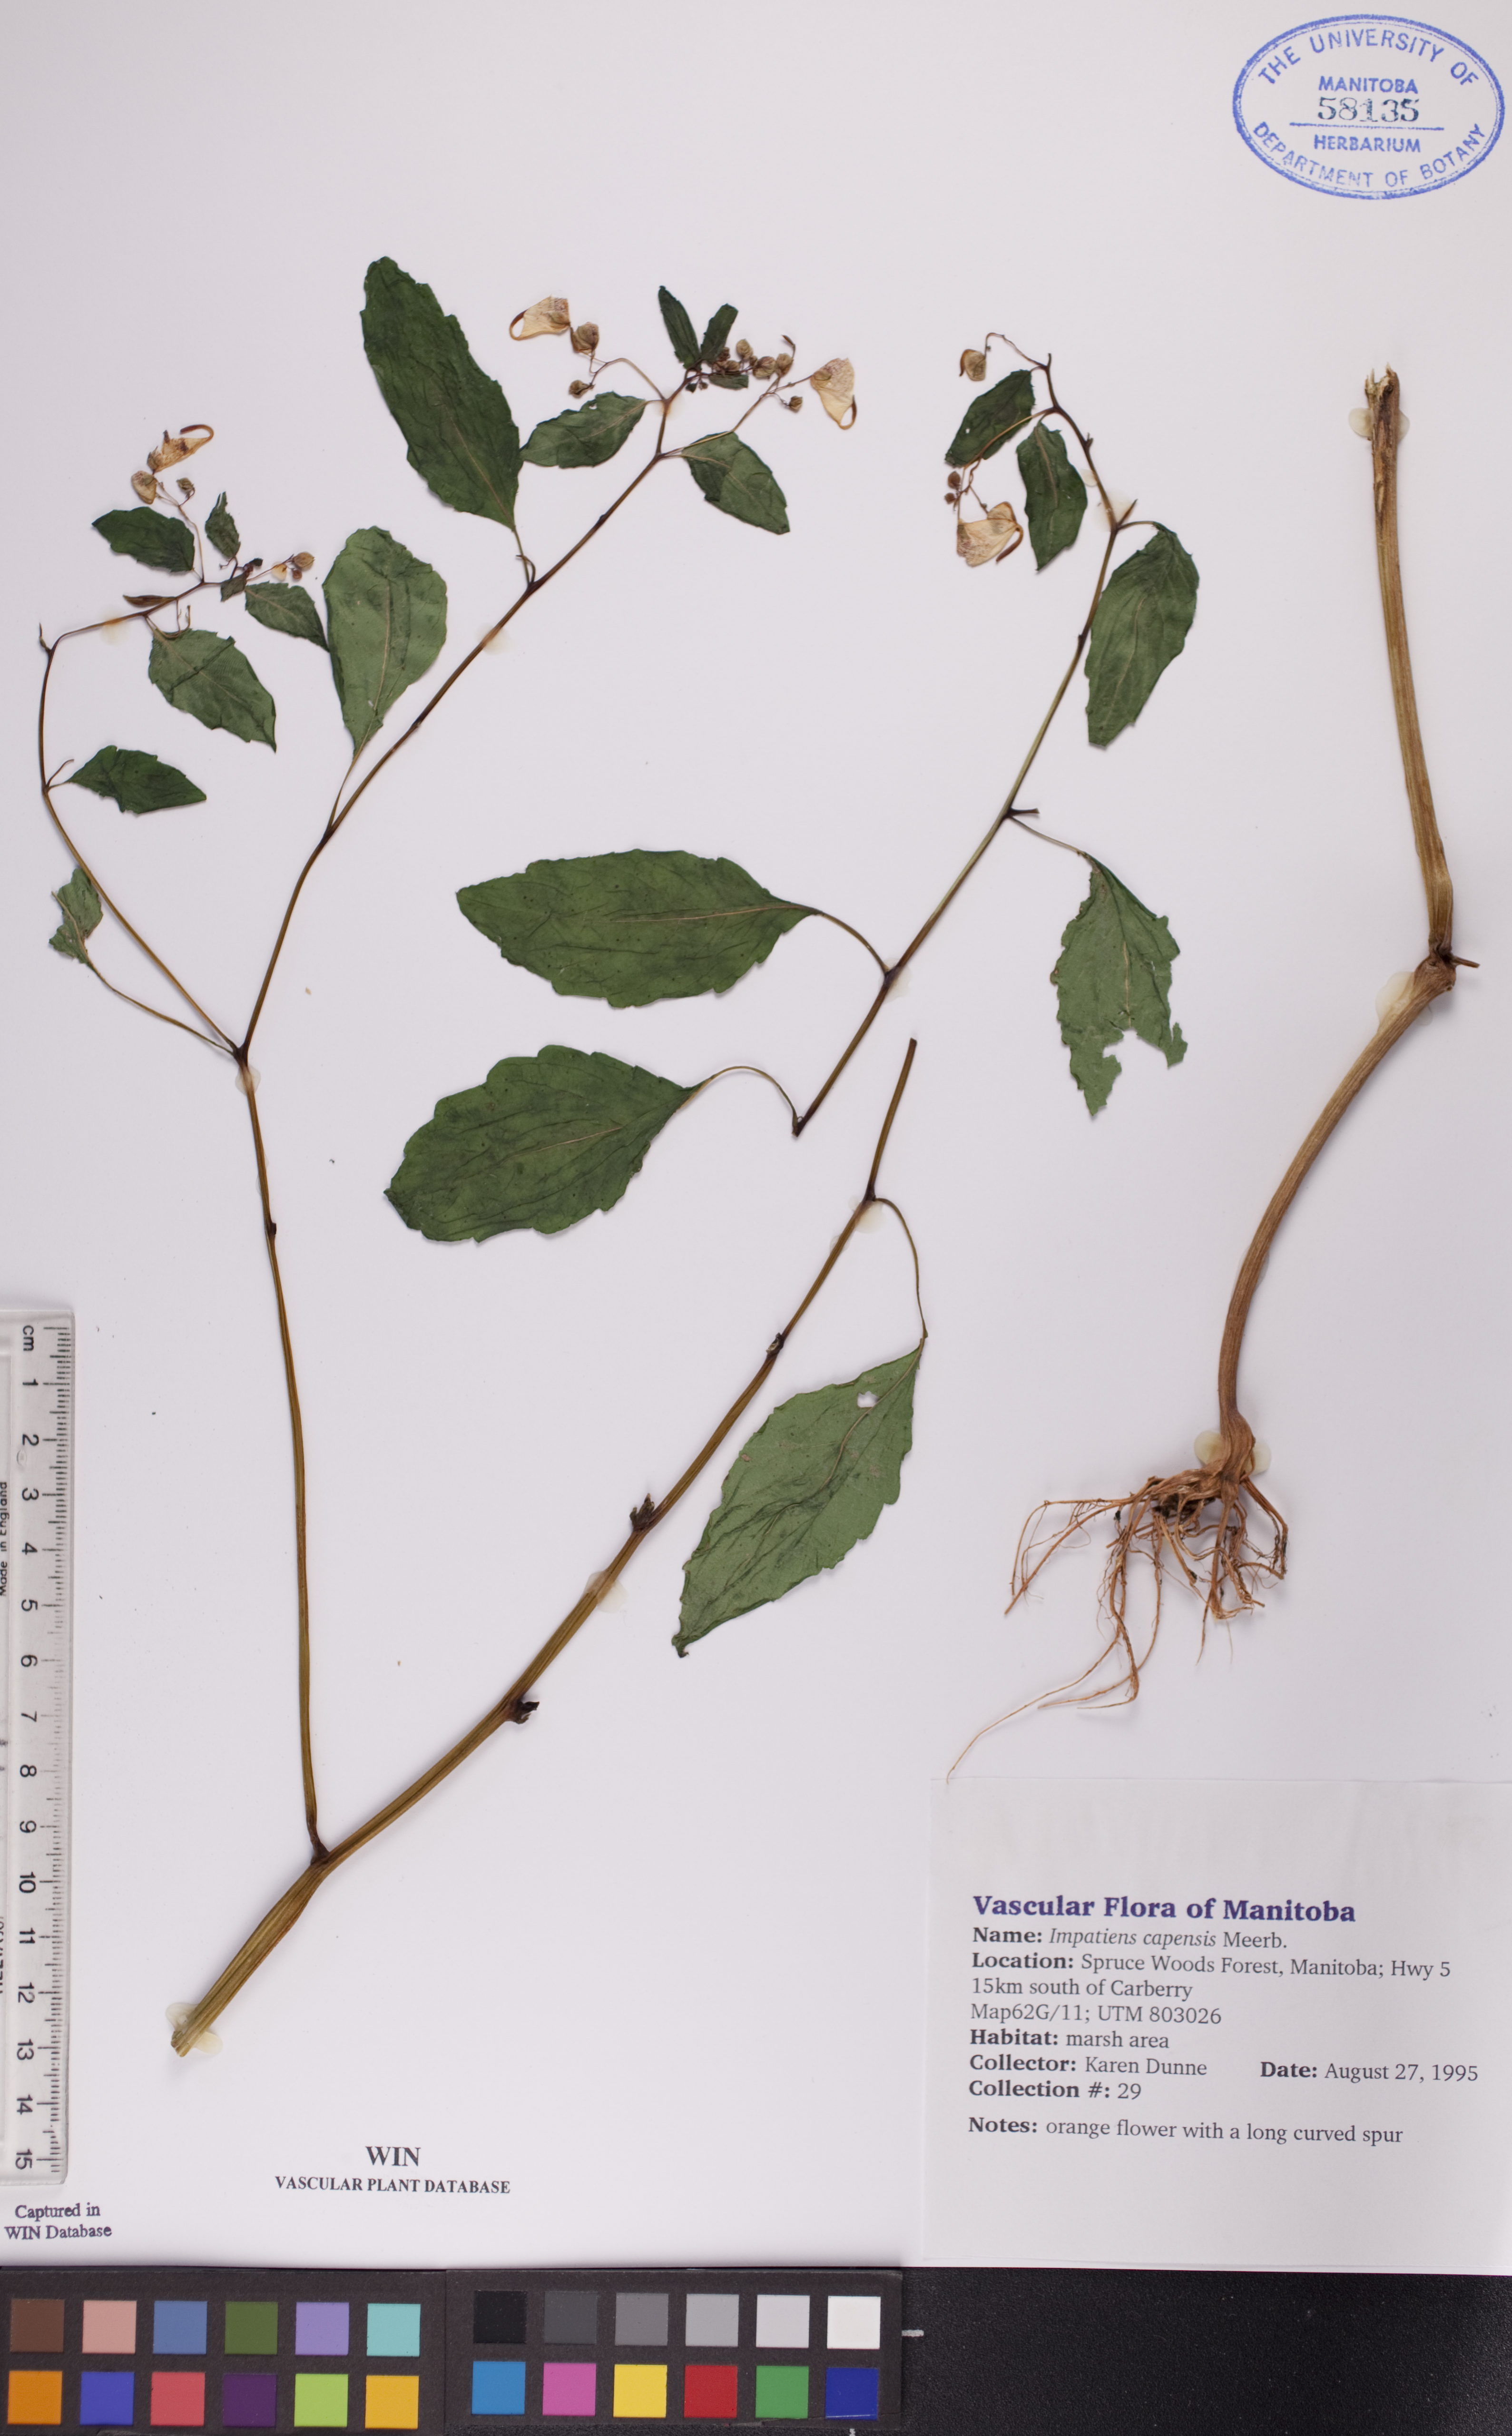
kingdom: Plantae
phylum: Tracheophyta
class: Magnoliopsida
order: Ericales
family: Balsaminaceae
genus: Impatiens
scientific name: Impatiens capensis
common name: Orange balsam
